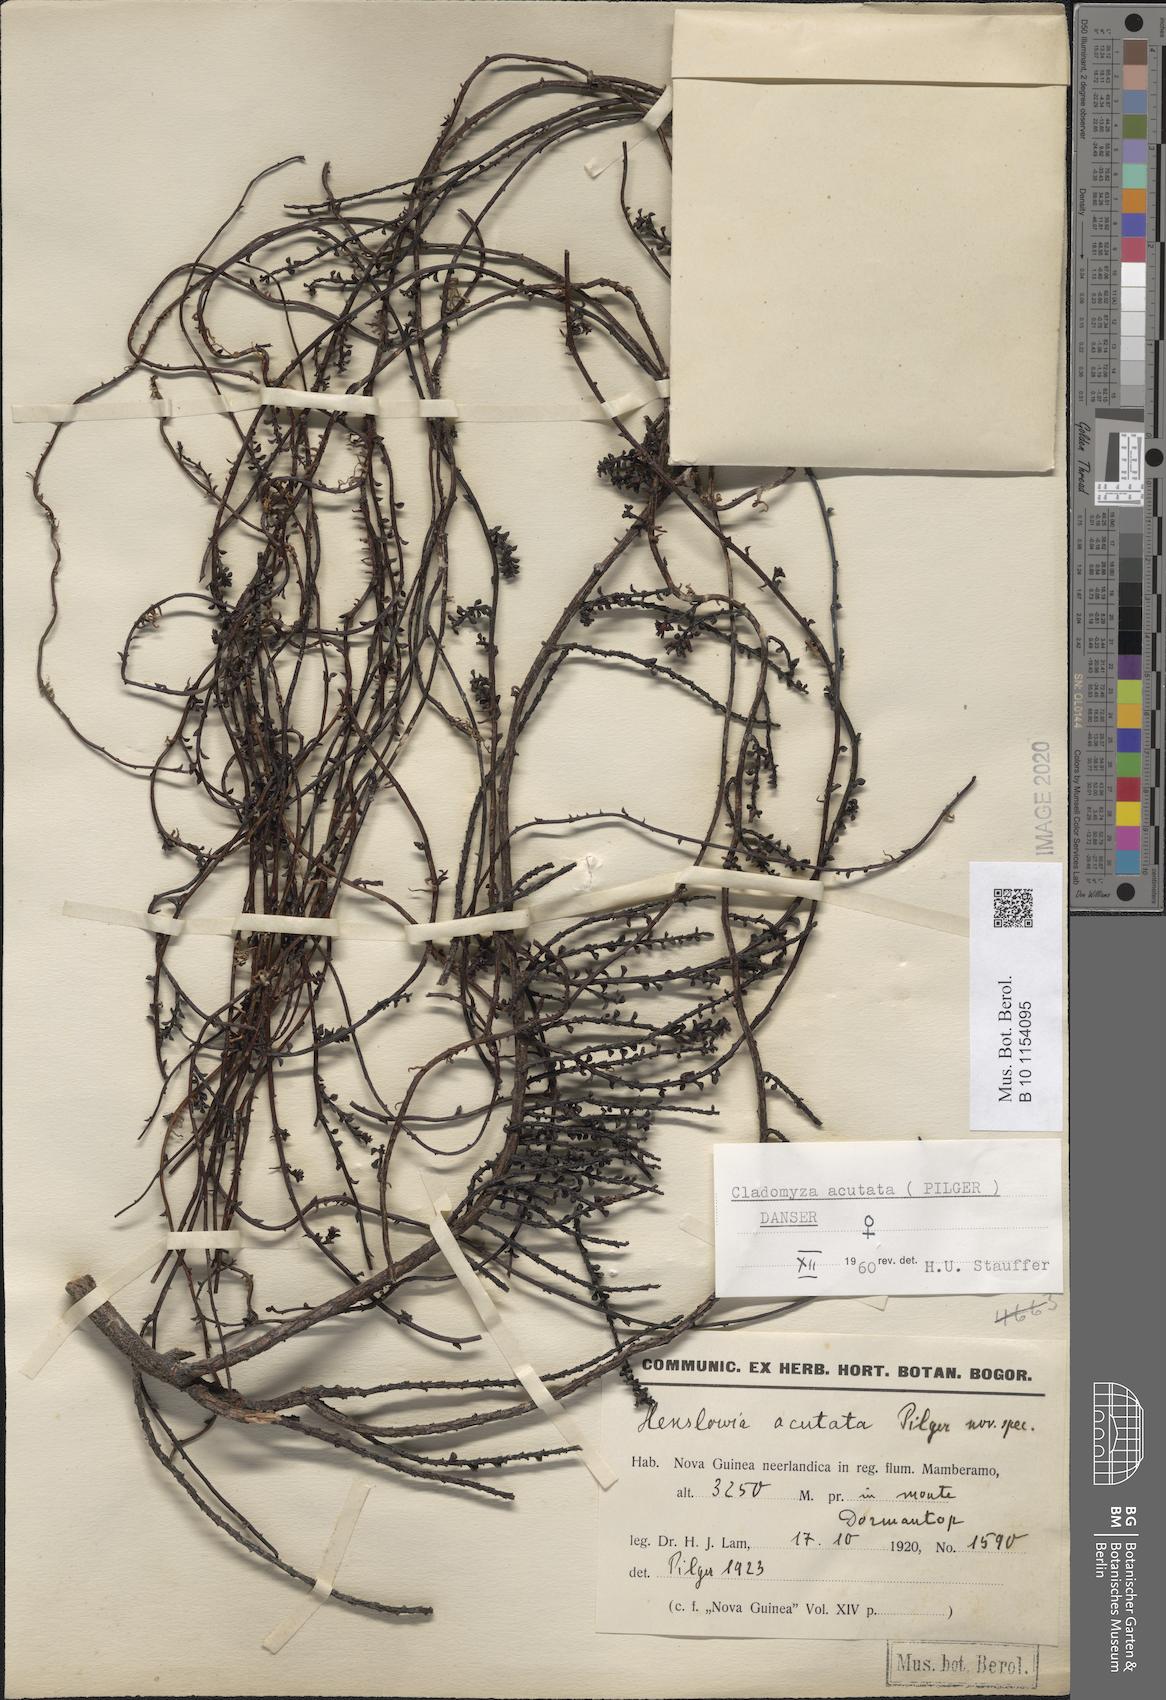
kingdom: Plantae
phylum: Tracheophyta
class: Magnoliopsida
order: Santalales
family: Amphorogynaceae
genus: Cladomyza
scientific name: Cladomyza acutata
